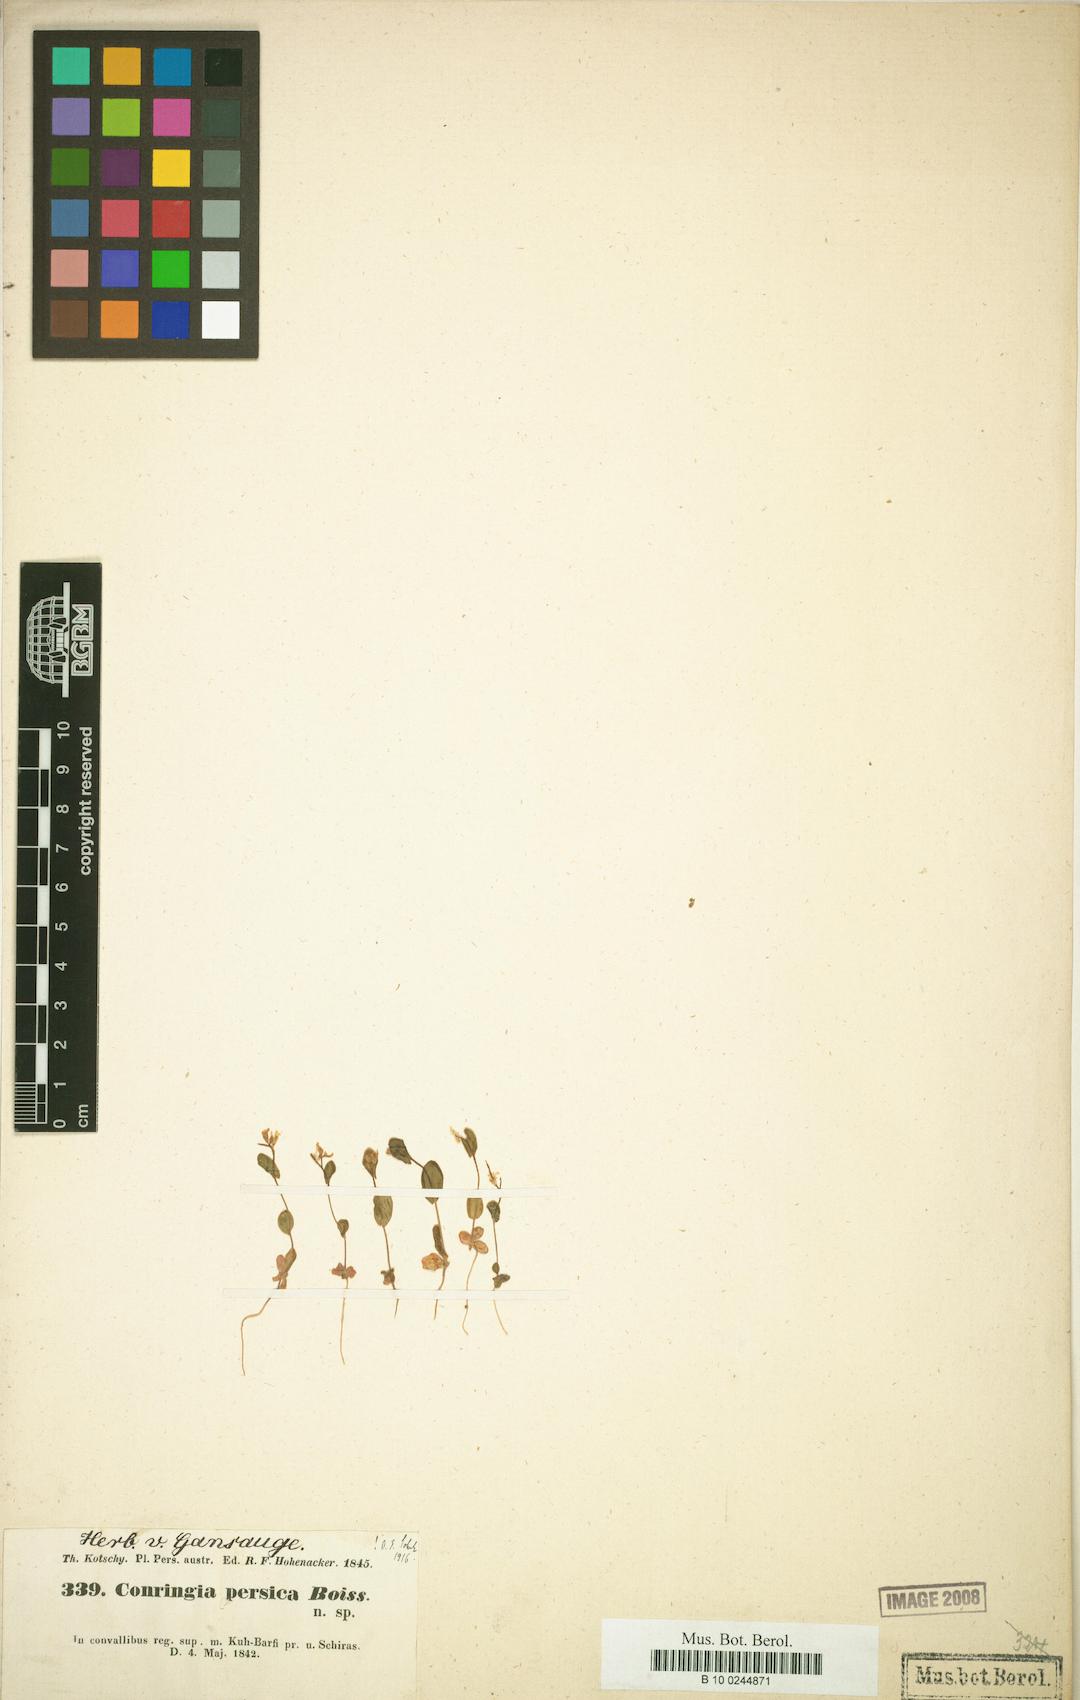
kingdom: Plantae
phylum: Tracheophyta
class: Magnoliopsida
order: Brassicales
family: Brassicaceae
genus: Conringia
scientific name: Conringia persica
